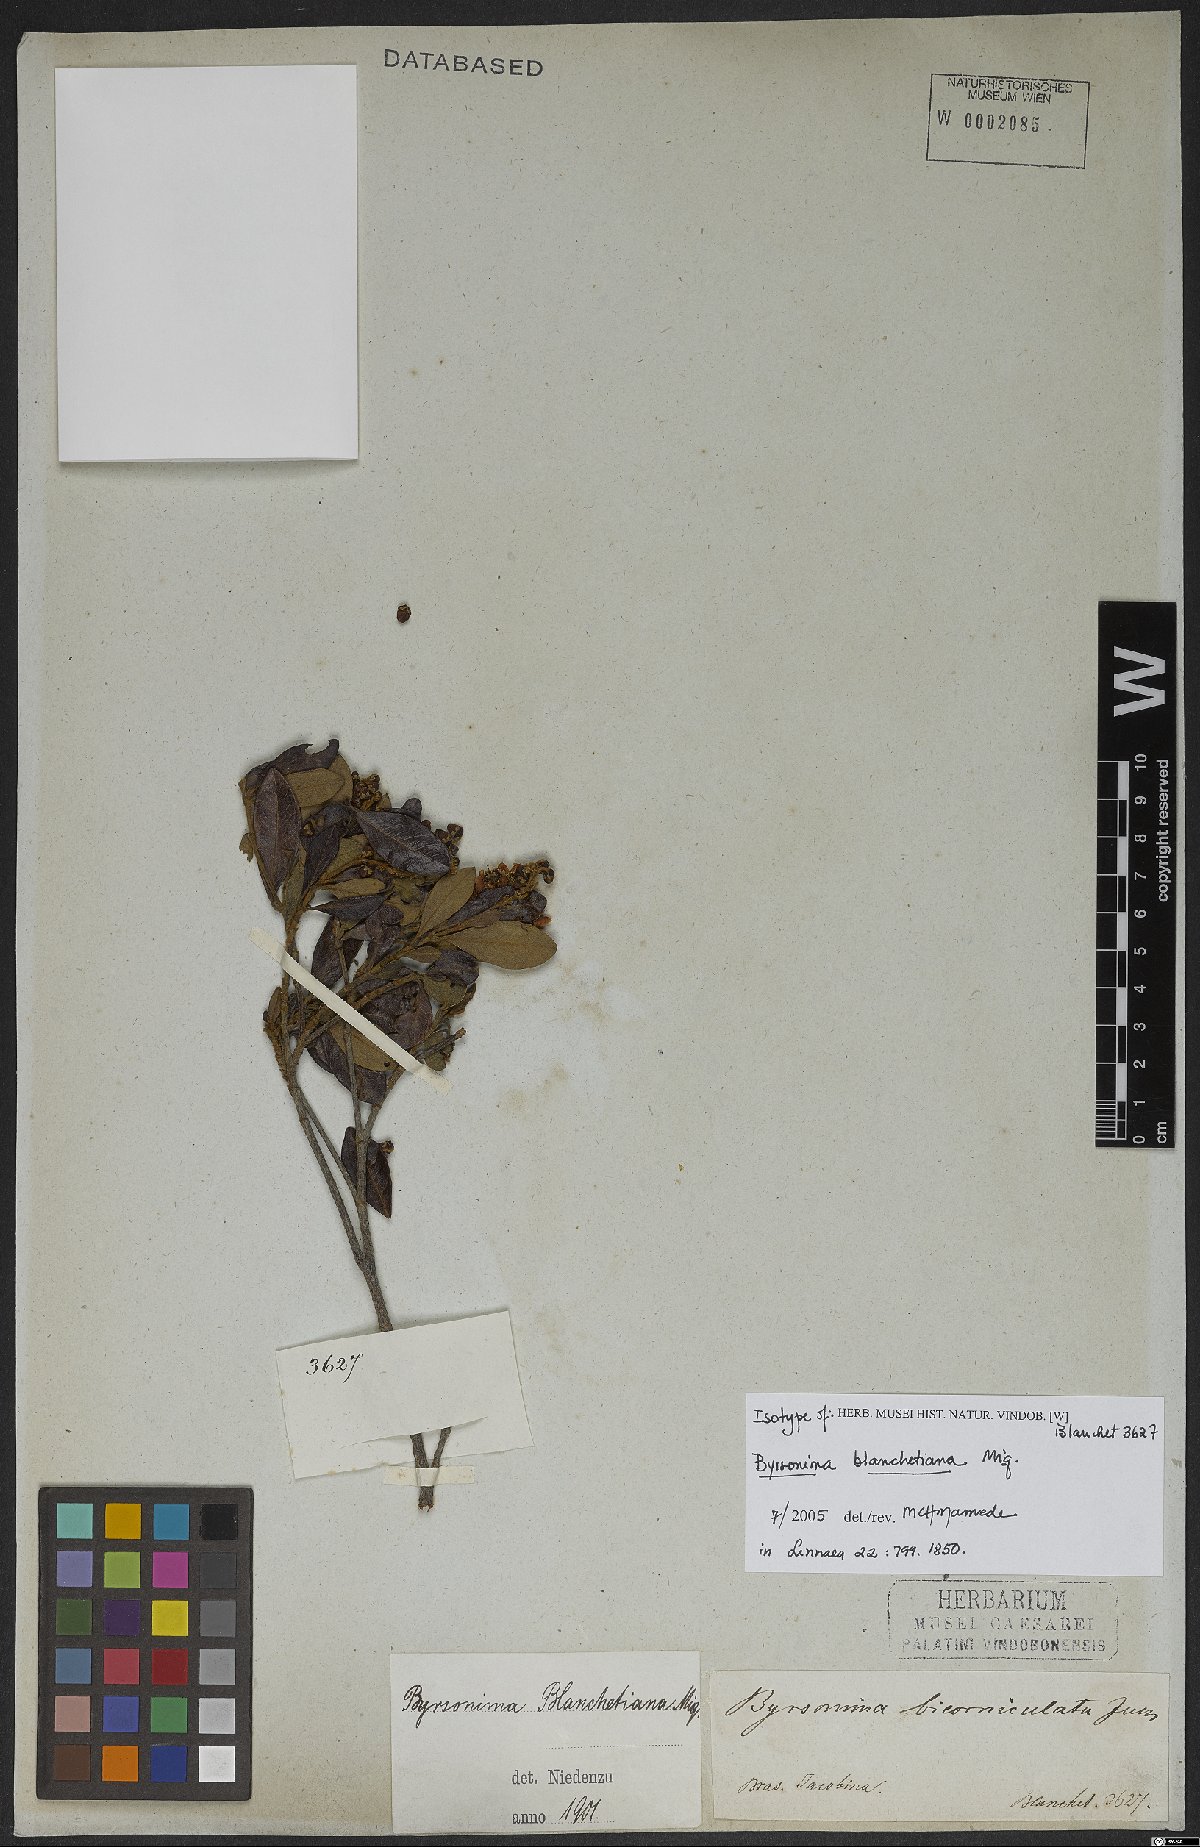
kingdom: Plantae
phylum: Tracheophyta
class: Magnoliopsida
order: Malpighiales
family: Malpighiaceae
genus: Byrsonima
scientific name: Byrsonima bicorniculata
